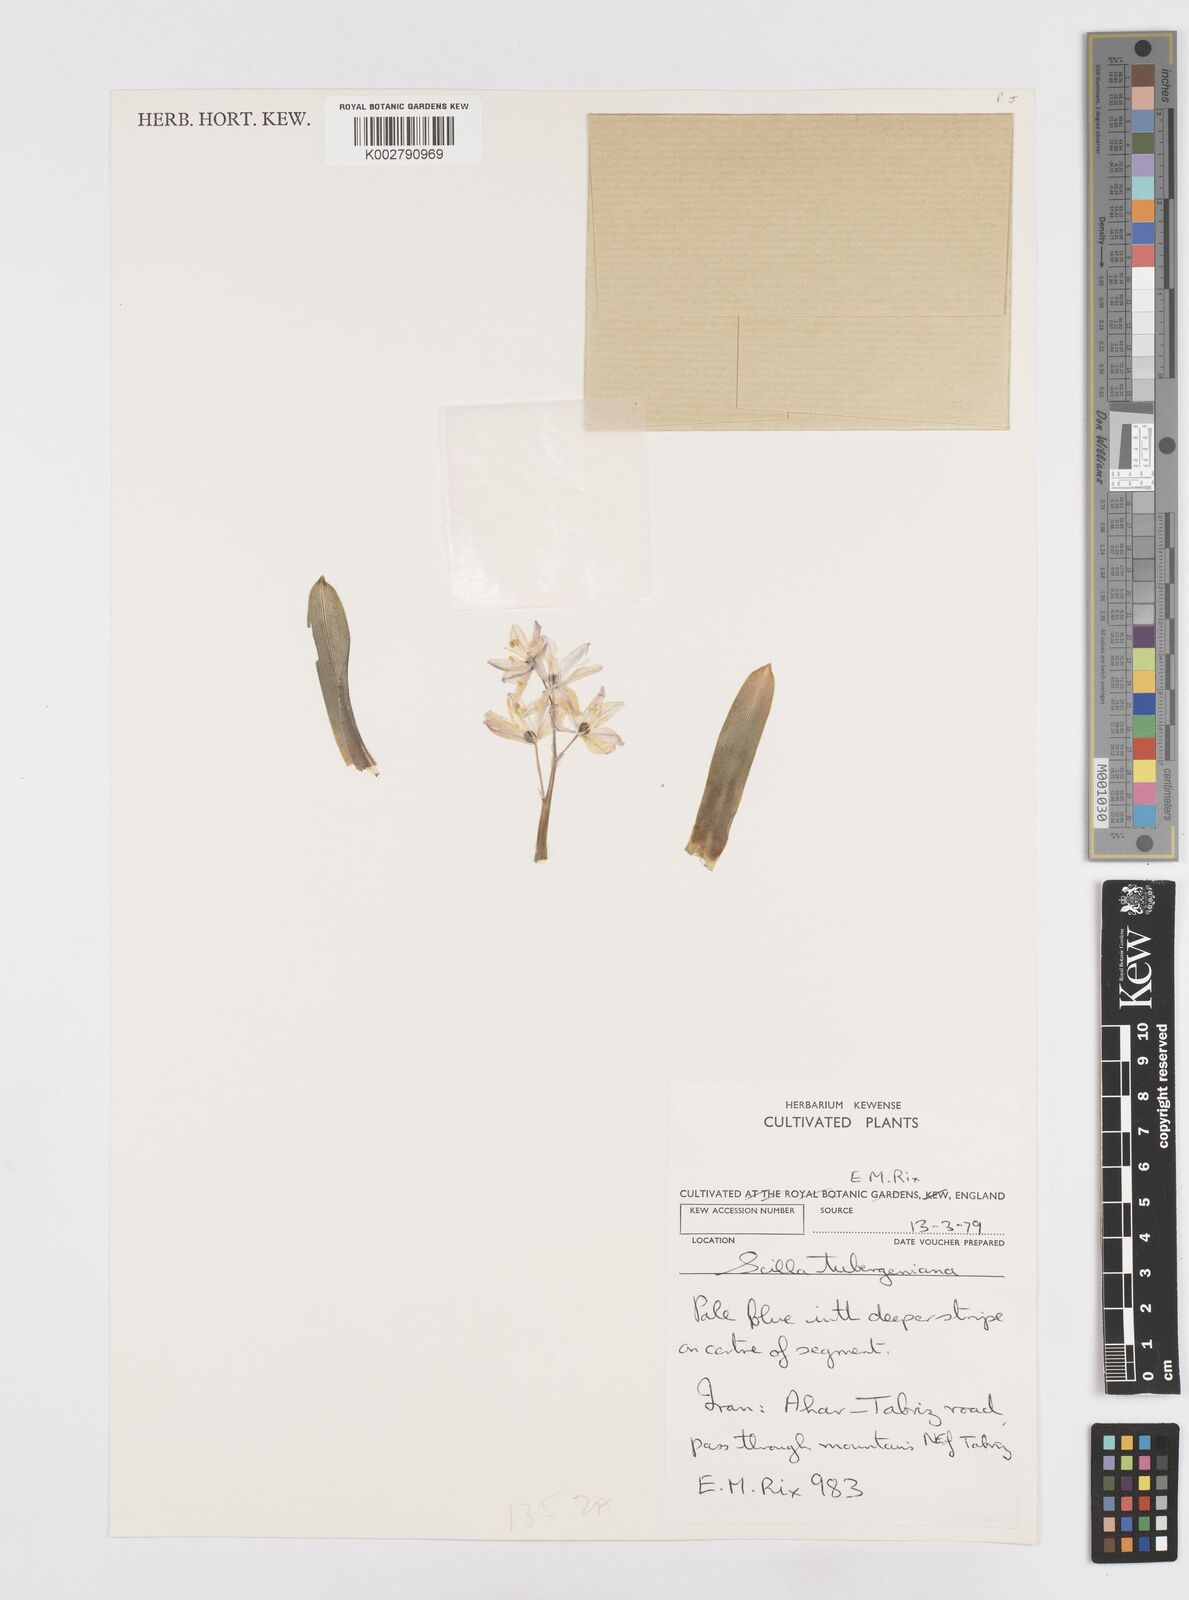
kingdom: Plantae
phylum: Tracheophyta
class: Liliopsida
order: Asparagales
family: Asparagaceae
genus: Scilla
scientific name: Scilla mischtschenkoana
